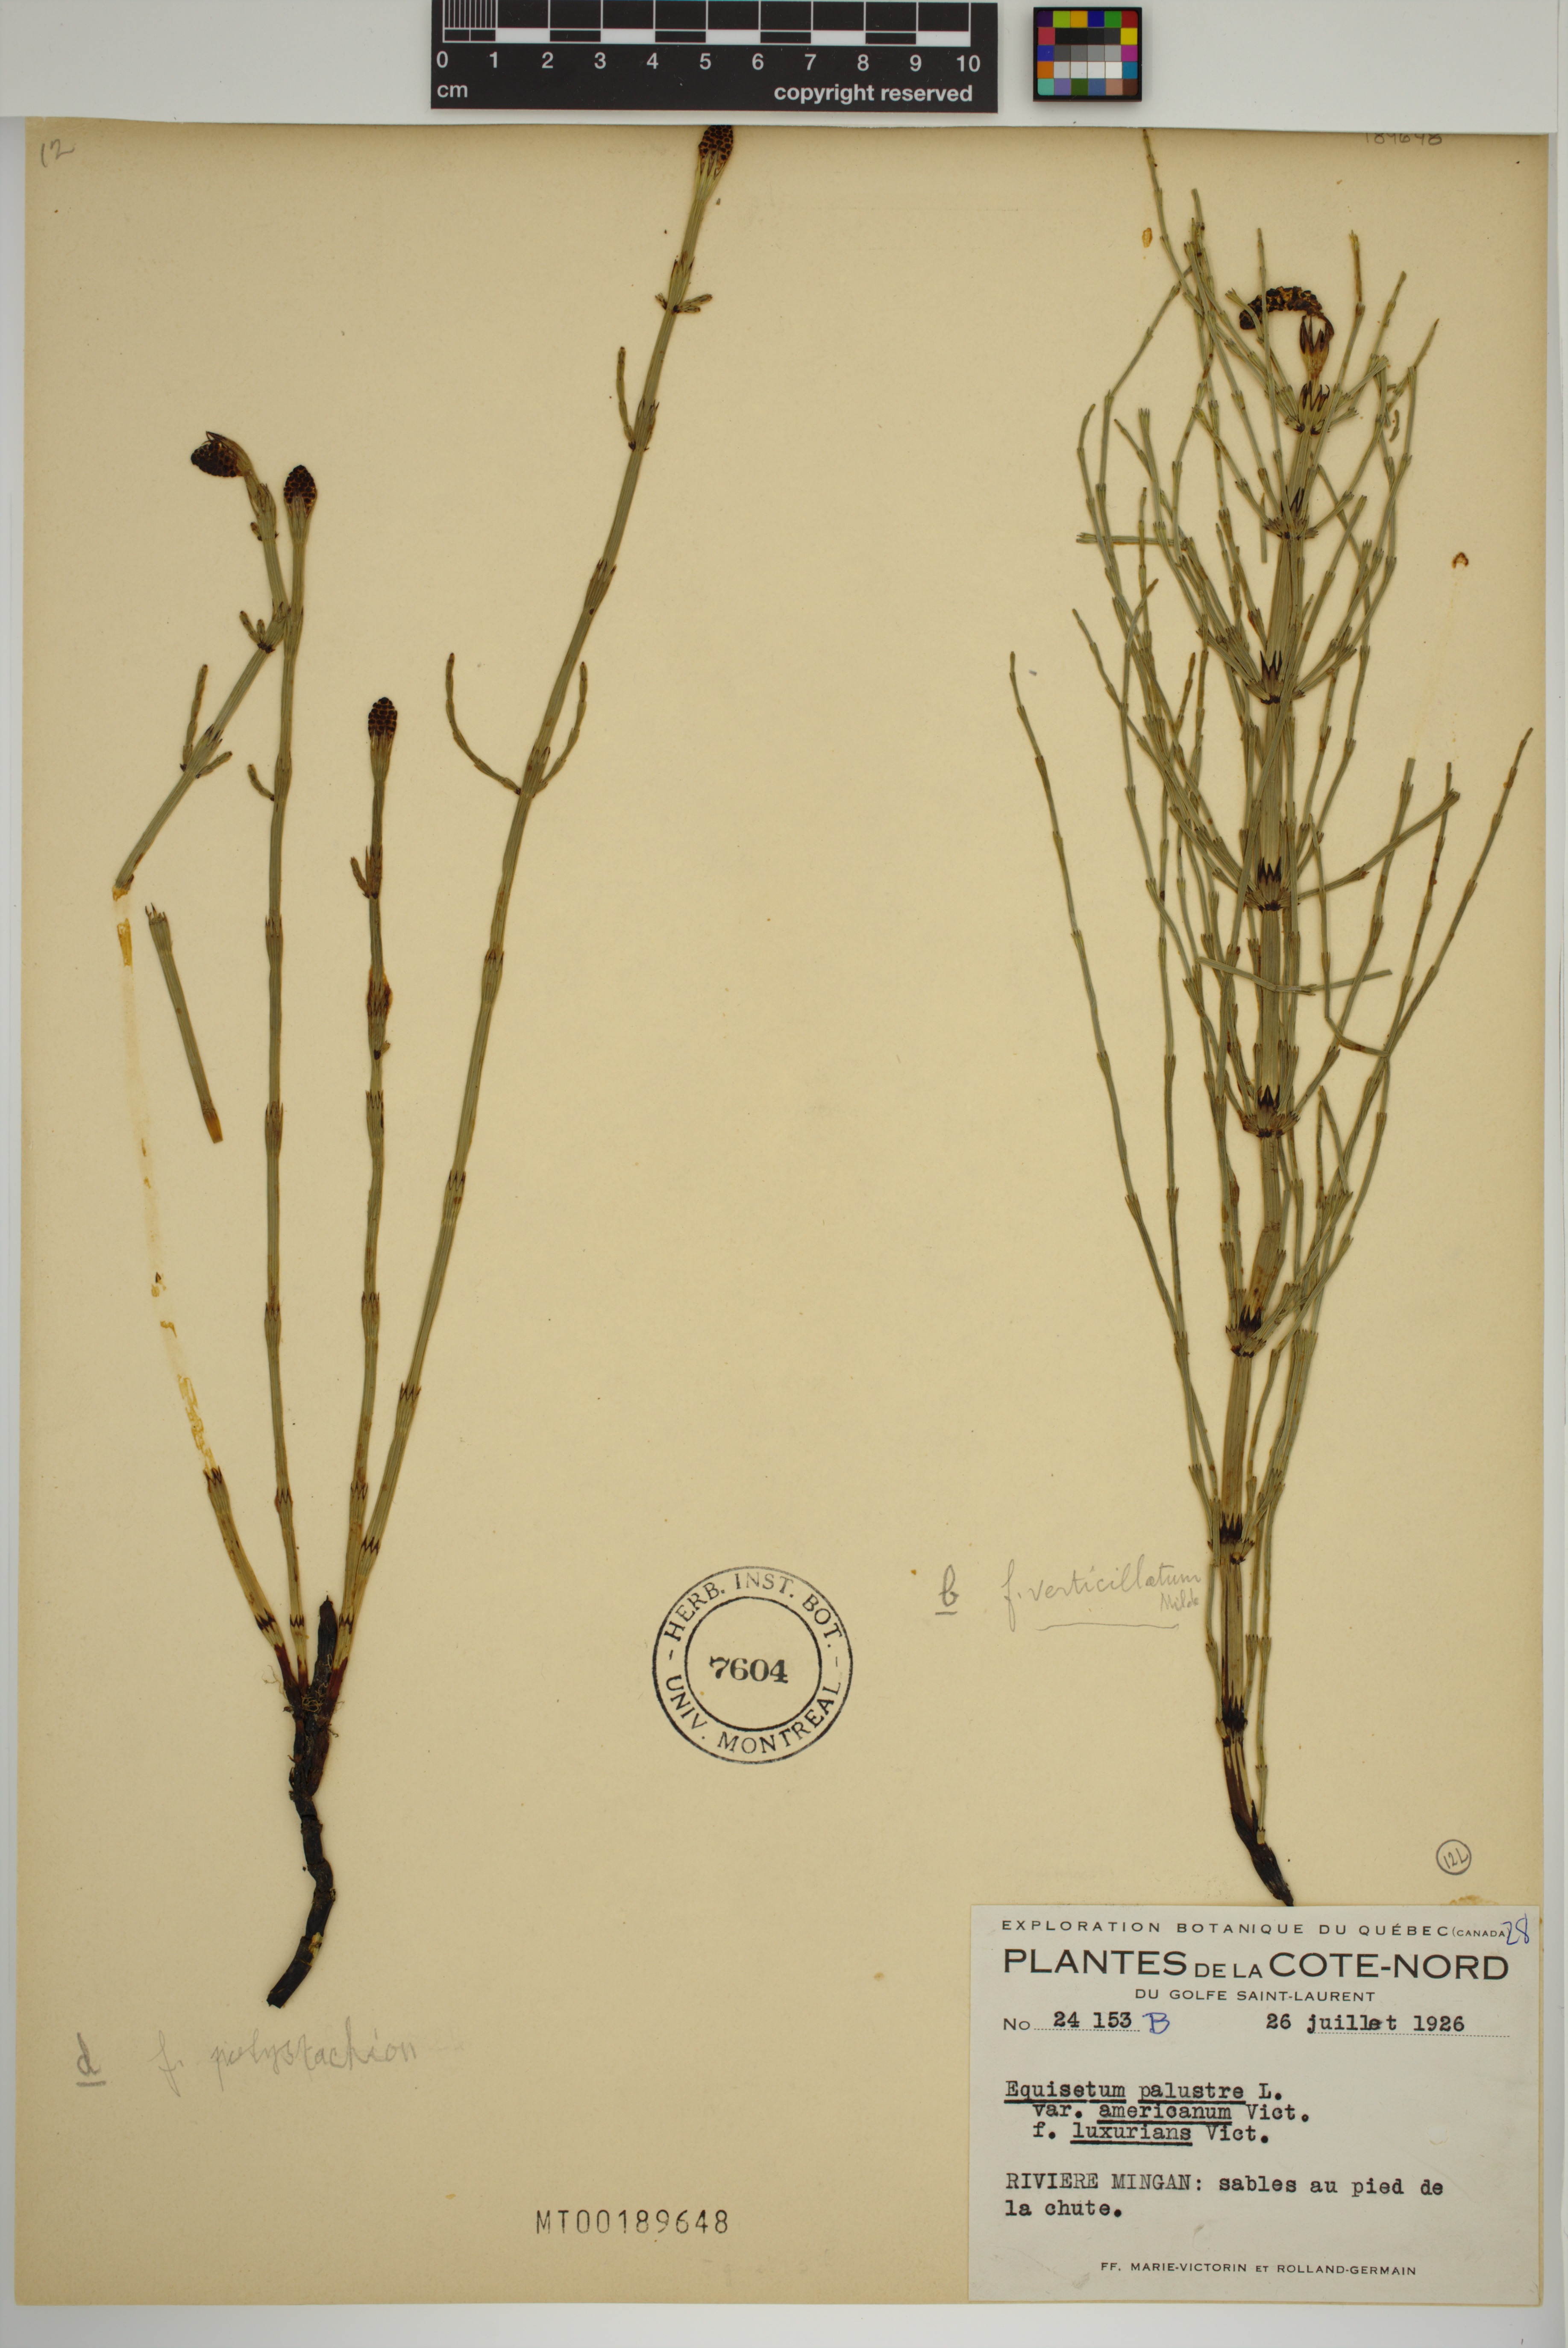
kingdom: Plantae
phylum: Tracheophyta
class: Polypodiopsida
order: Equisetales
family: Equisetaceae
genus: Equisetum
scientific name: Equisetum palustre
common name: Marsh horsetail
